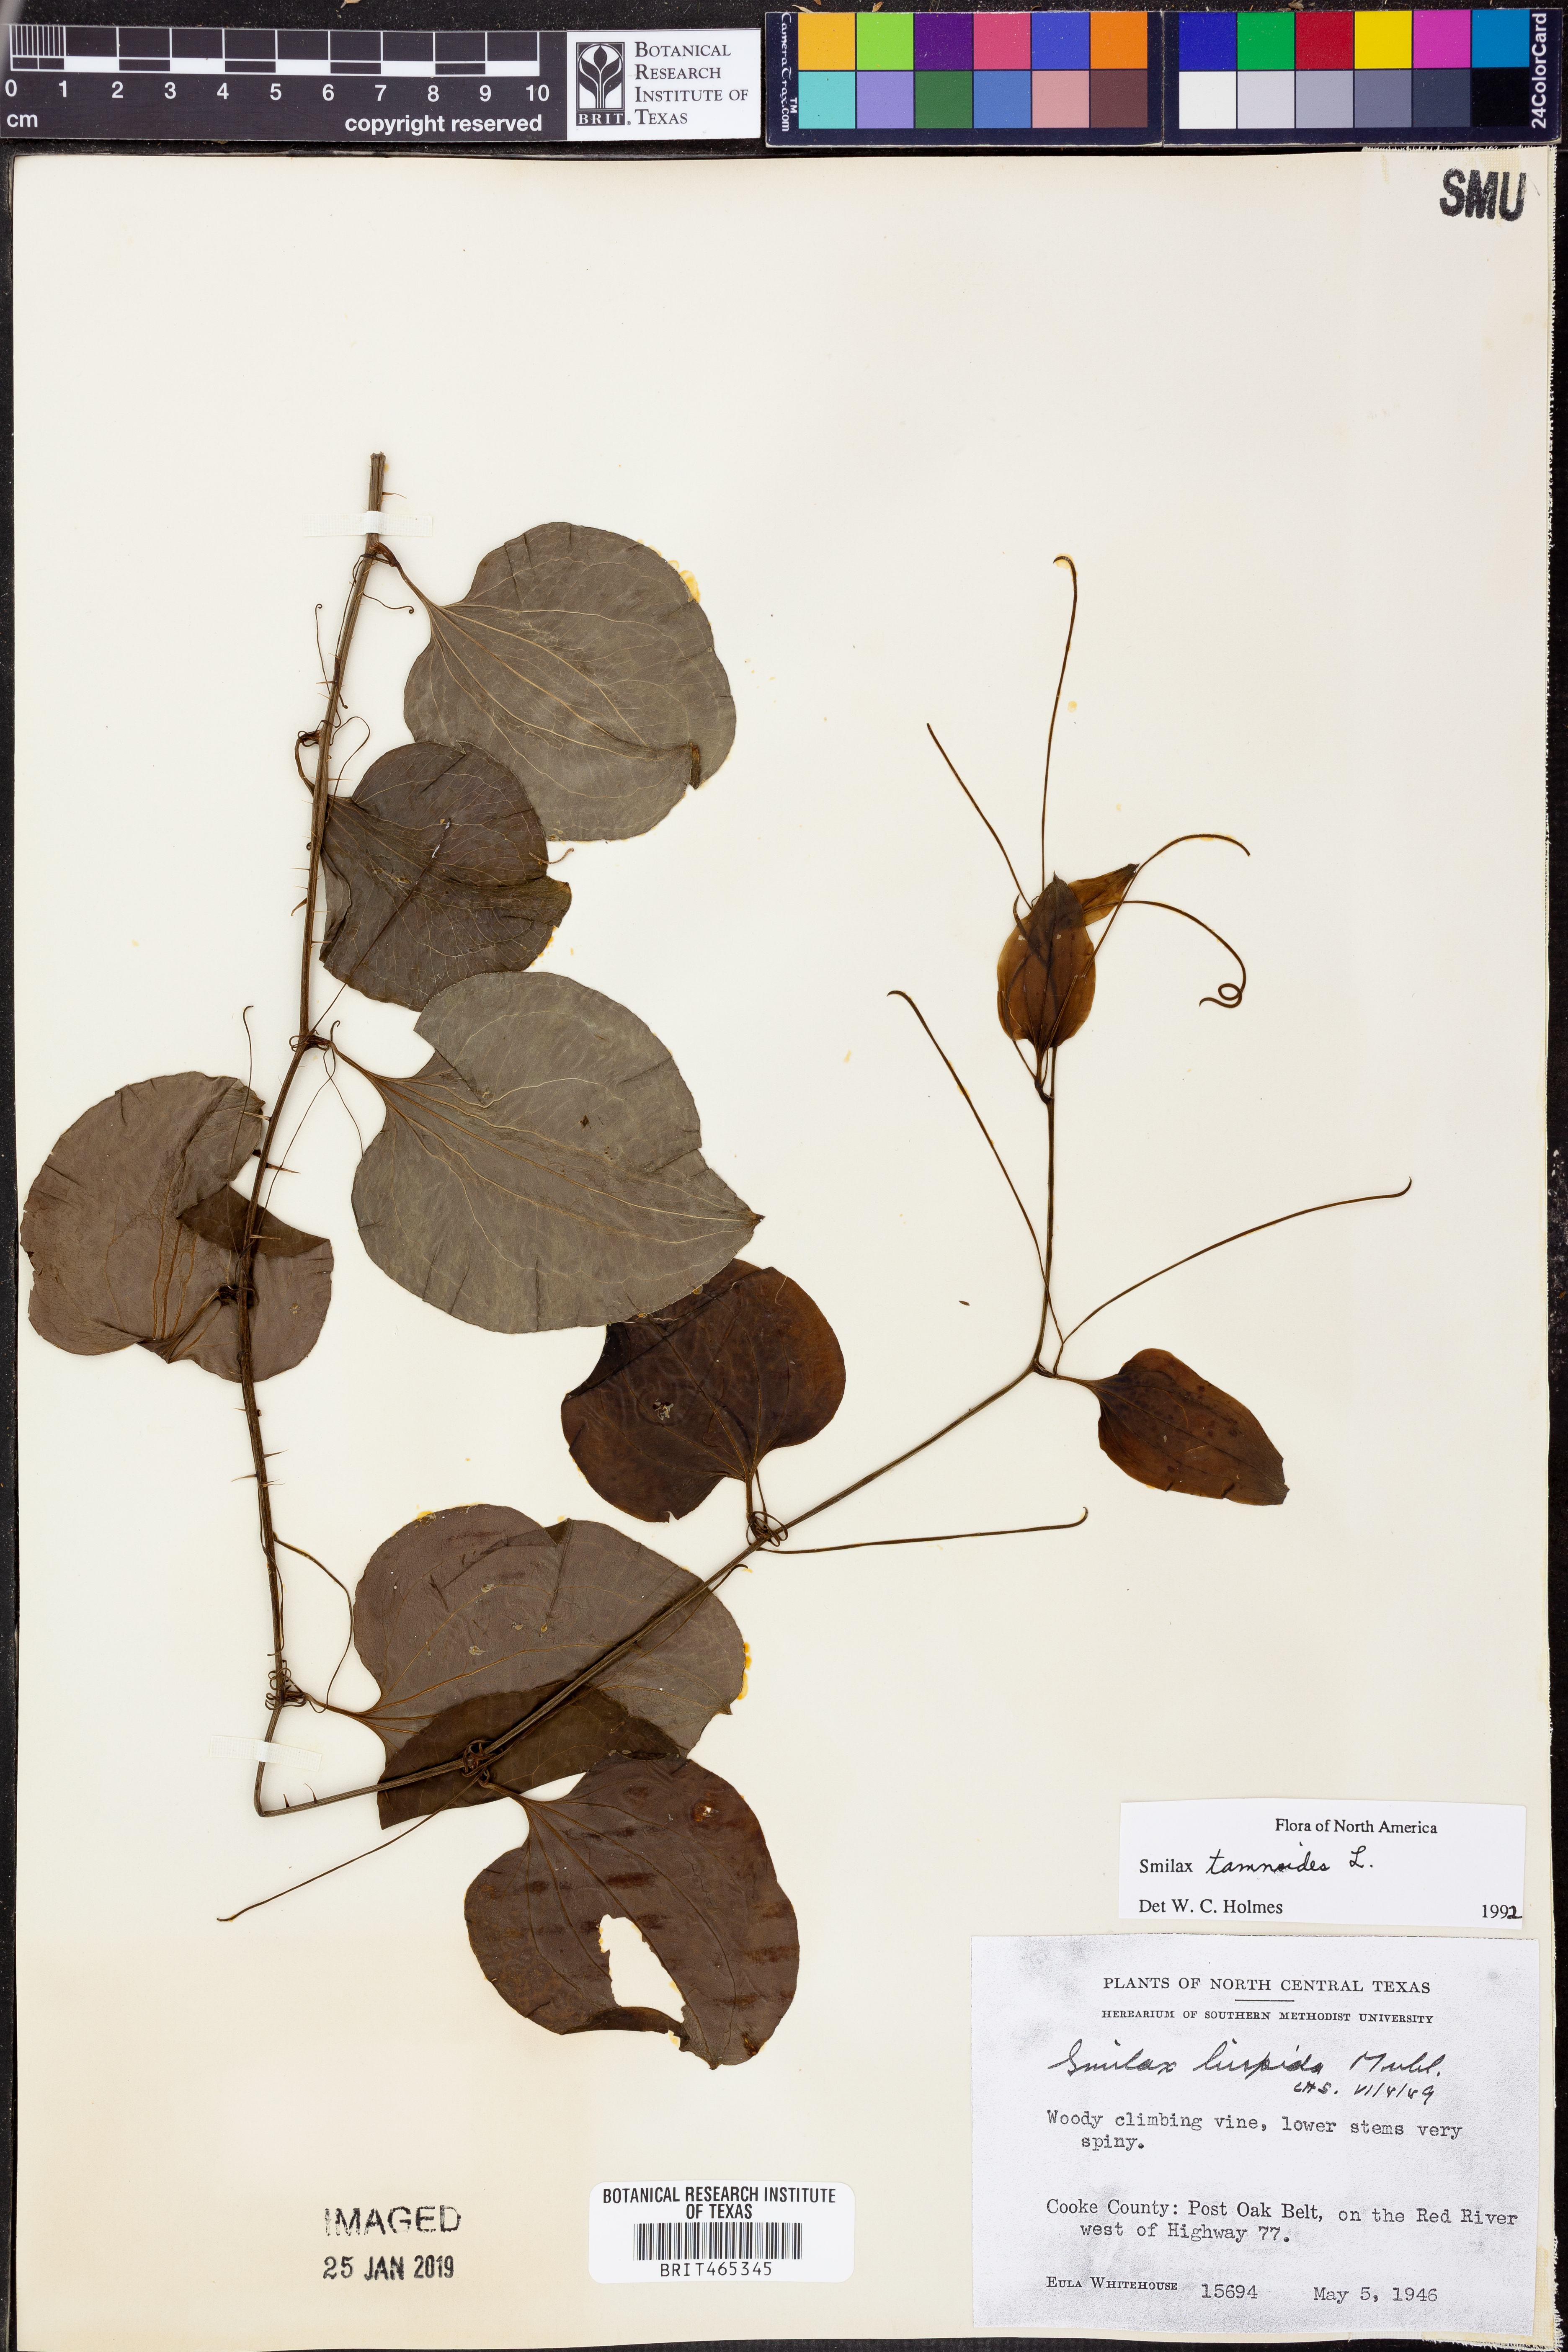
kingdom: Plantae
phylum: Tracheophyta
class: Liliopsida
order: Liliales
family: Smilacaceae
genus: Smilax
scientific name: Smilax tamnoides
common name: Hellfetter
